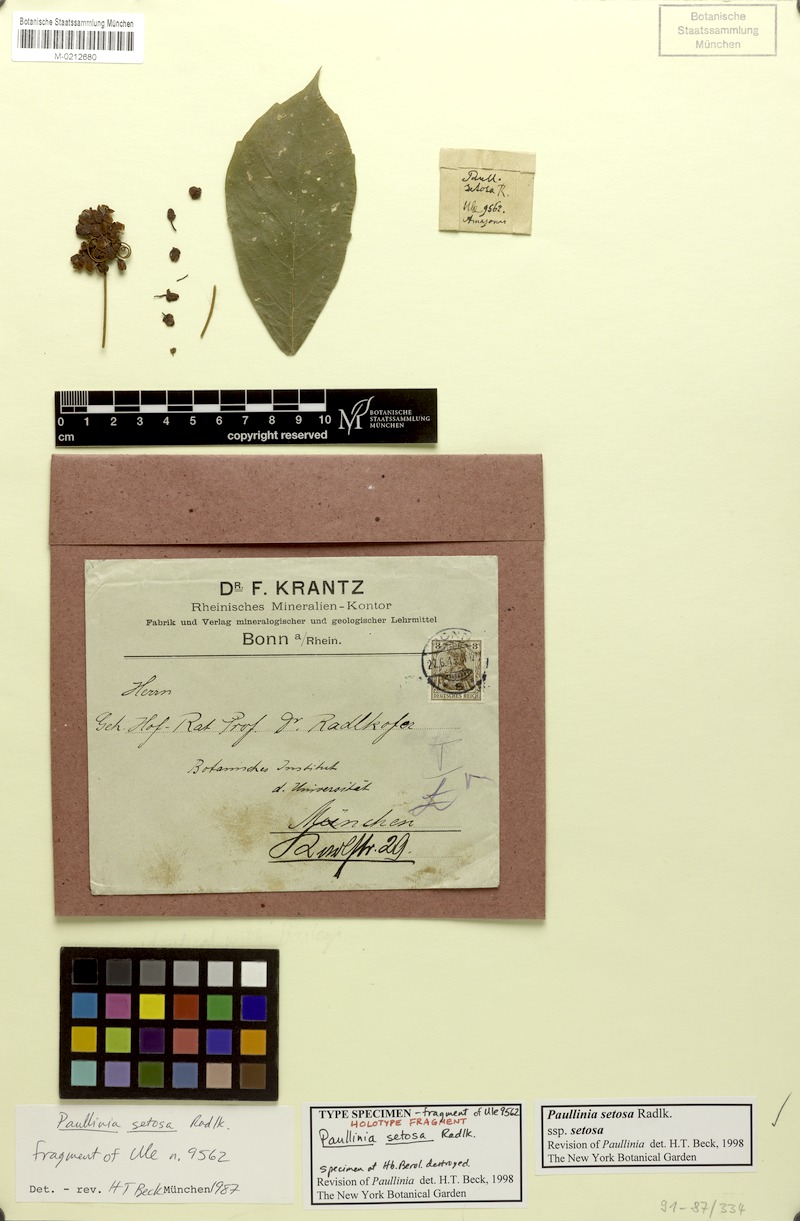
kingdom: Plantae
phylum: Tracheophyta
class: Magnoliopsida
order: Sapindales
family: Sapindaceae
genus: Paullinia
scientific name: Paullinia setosa
